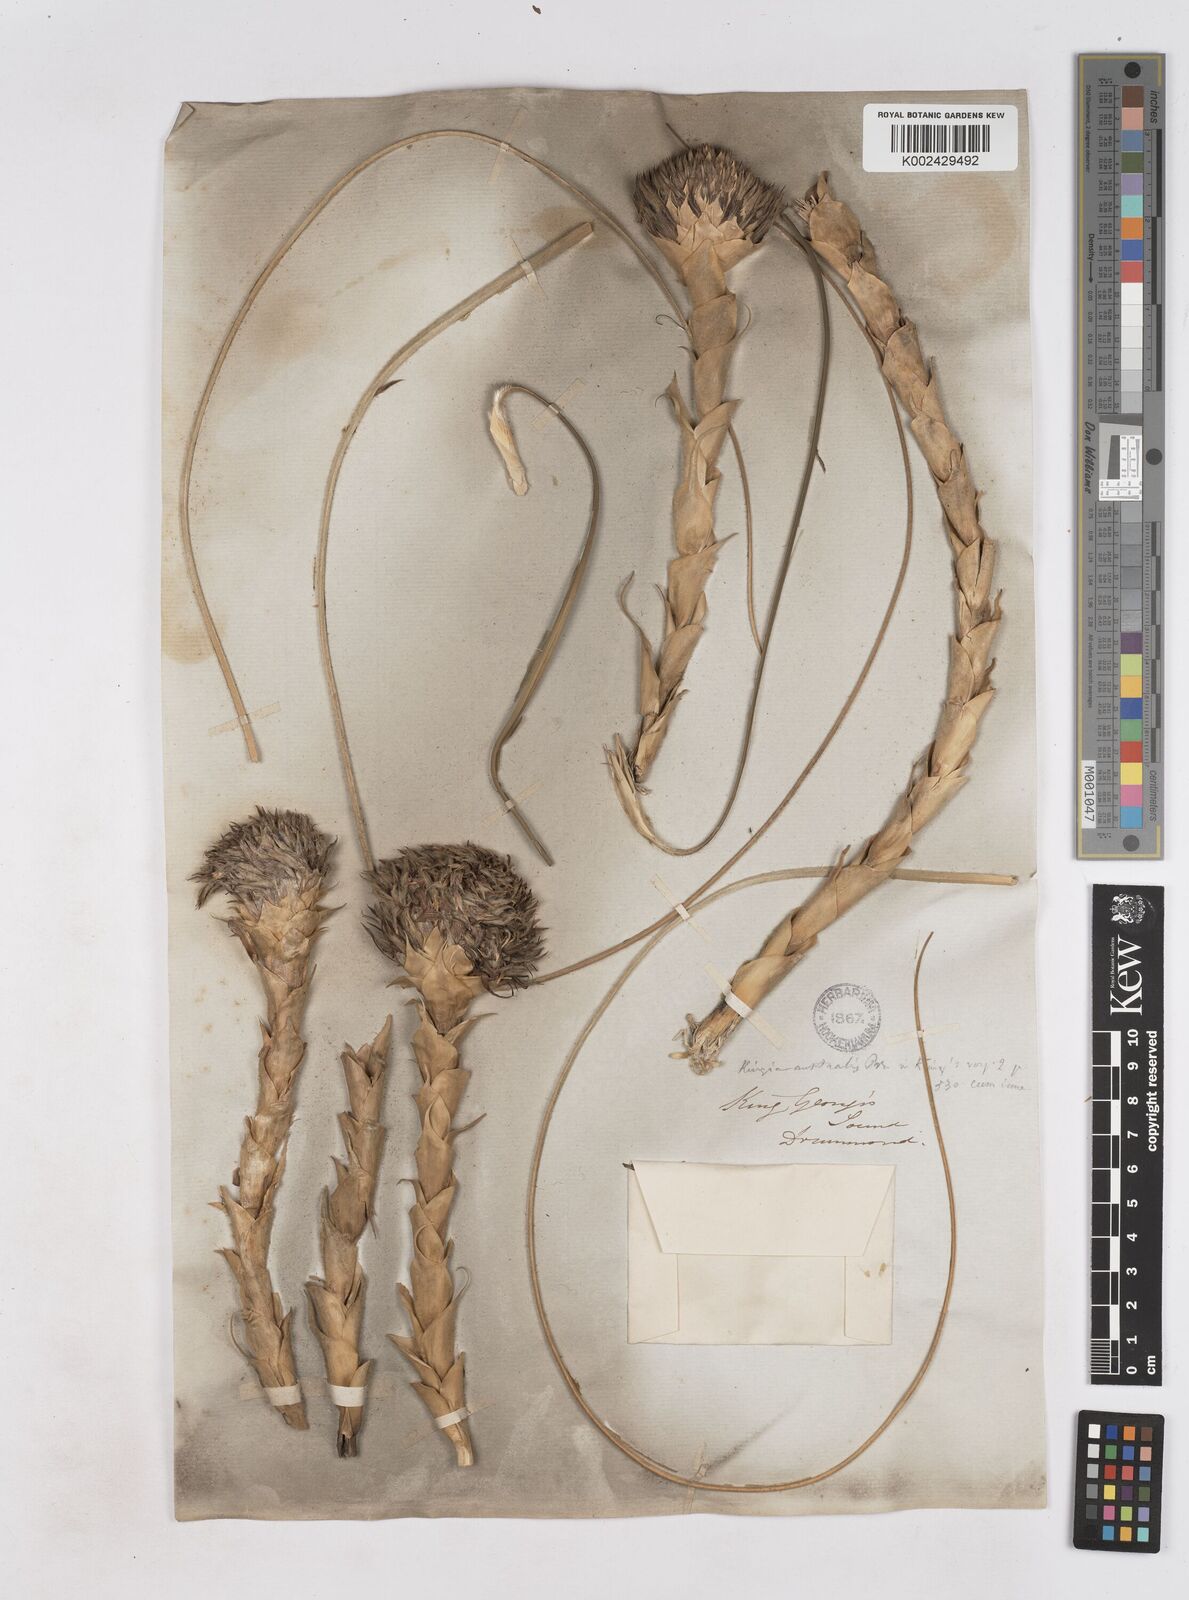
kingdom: Plantae
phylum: Tracheophyta
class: Liliopsida
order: Arecales
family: Dasypogonaceae
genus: Kingia
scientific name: Kingia australis
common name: Black gin
